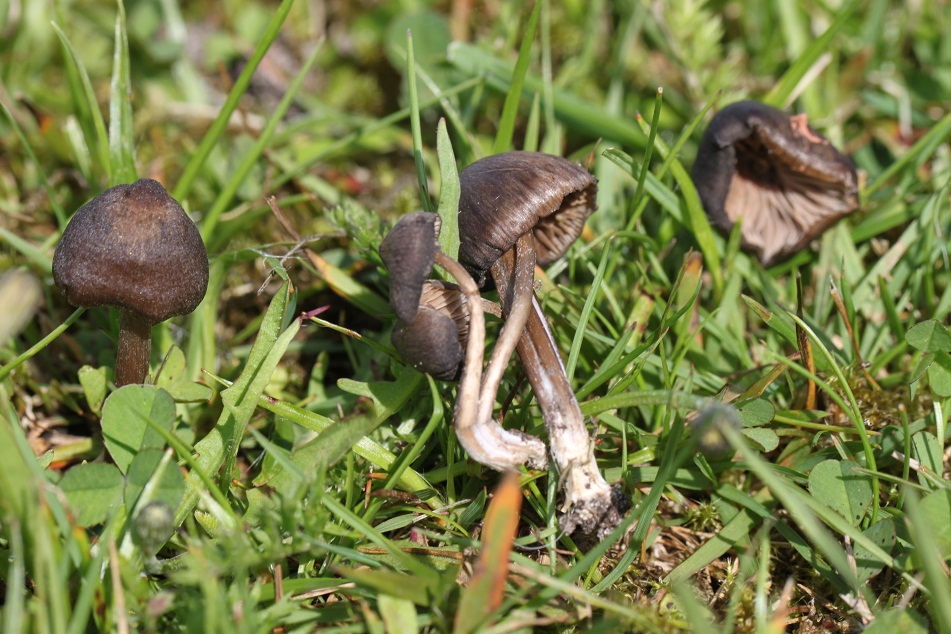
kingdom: Fungi
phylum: Basidiomycota
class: Agaricomycetes
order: Agaricales
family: Entolomataceae
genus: Entoloma
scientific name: Entoloma
